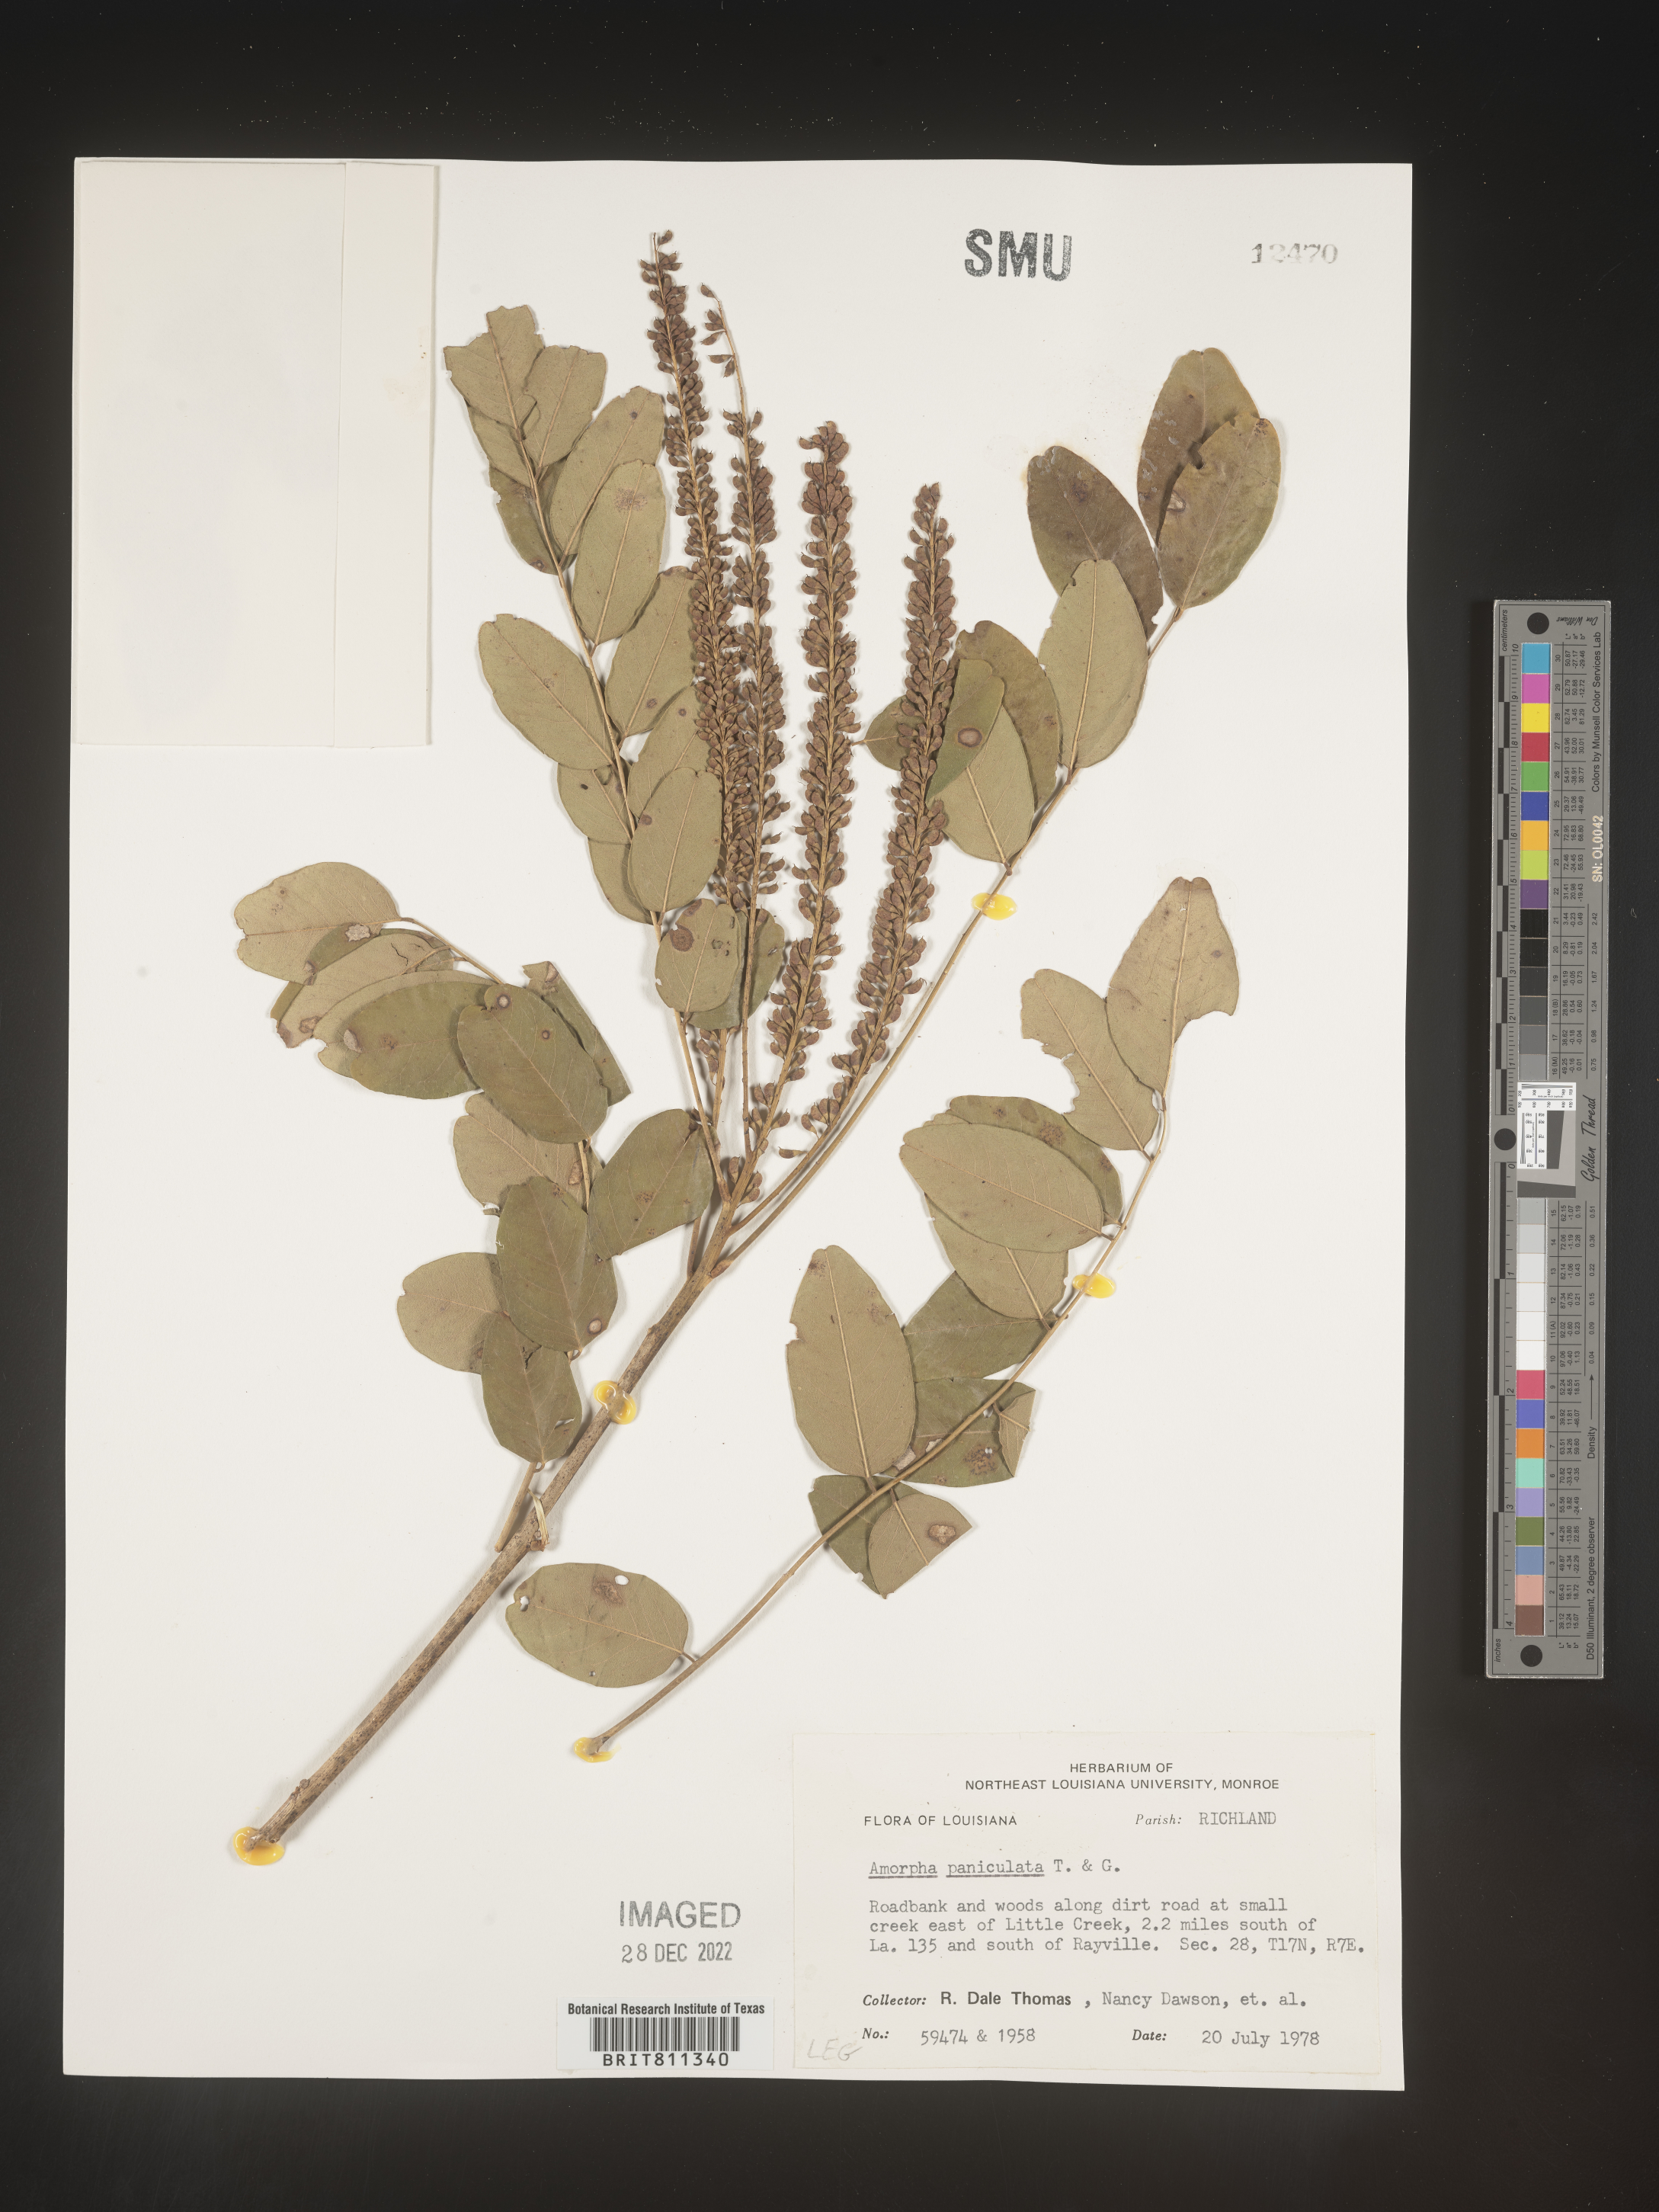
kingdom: Plantae
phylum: Tracheophyta
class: Magnoliopsida
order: Fabales
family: Fabaceae
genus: Amorpha
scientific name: Amorpha paniculata
